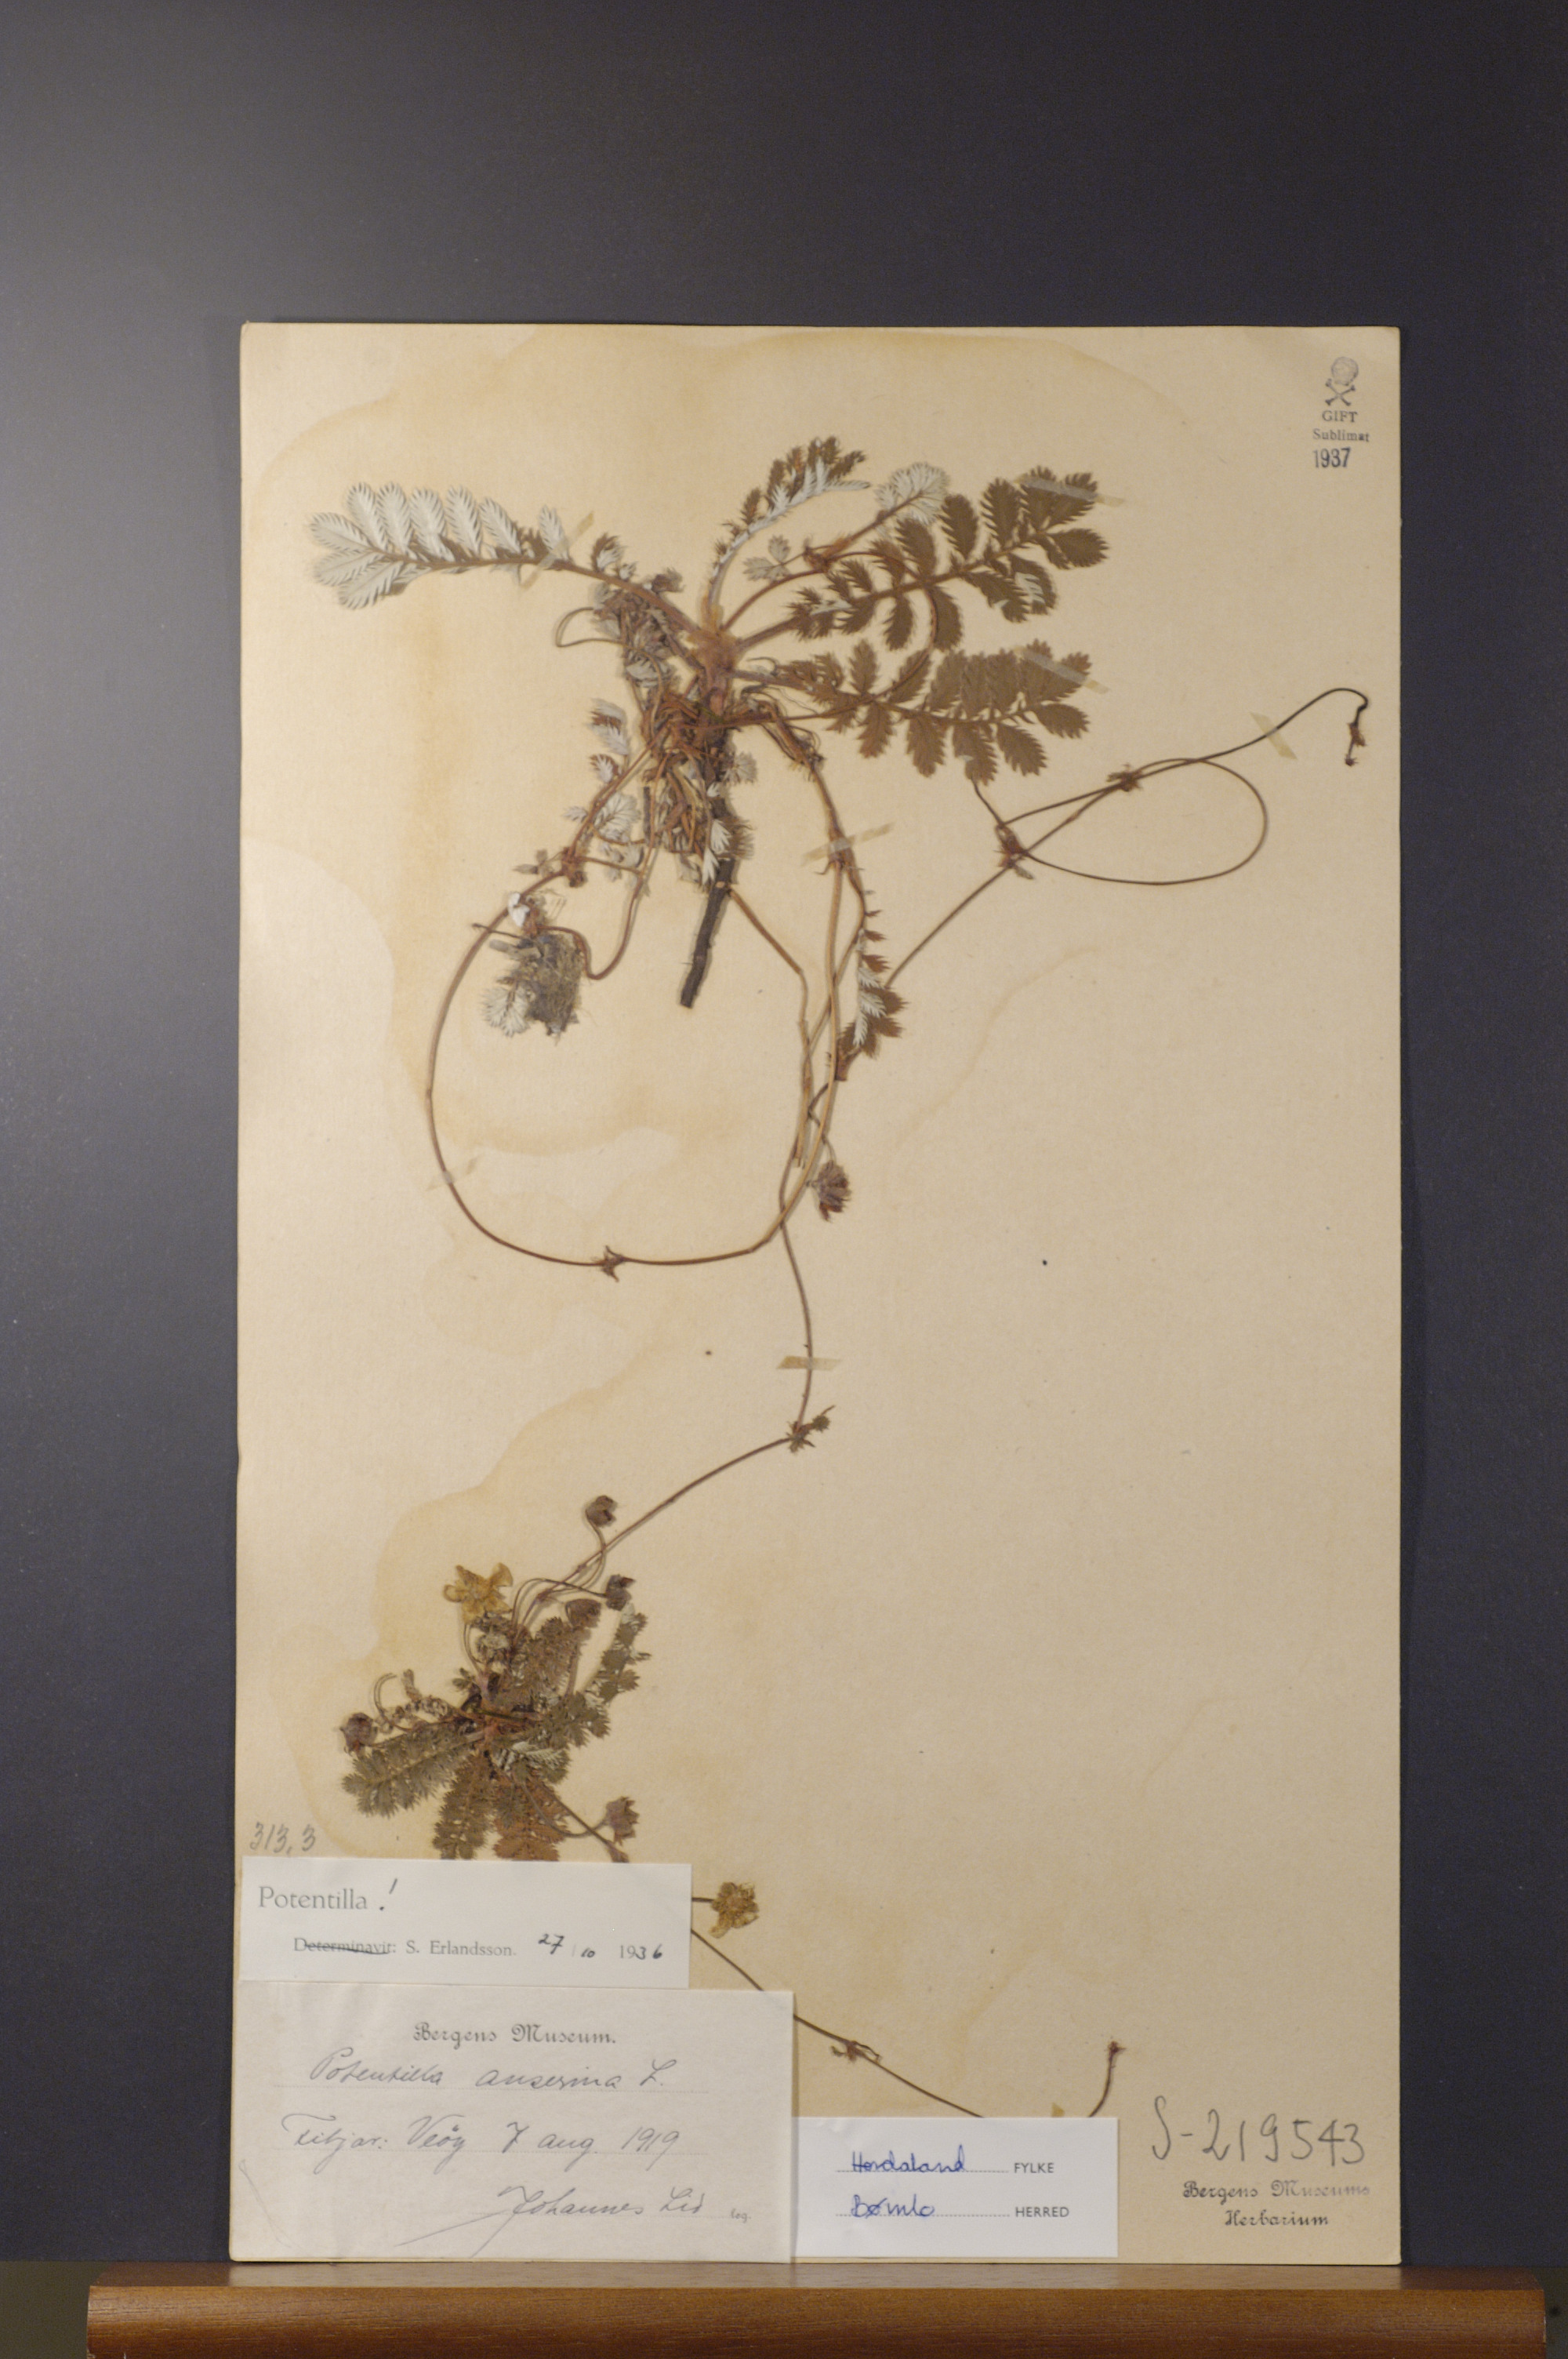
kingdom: Plantae
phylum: Tracheophyta
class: Magnoliopsida
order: Rosales
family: Rosaceae
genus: Argentina
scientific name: Argentina anserina
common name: Common silverweed
